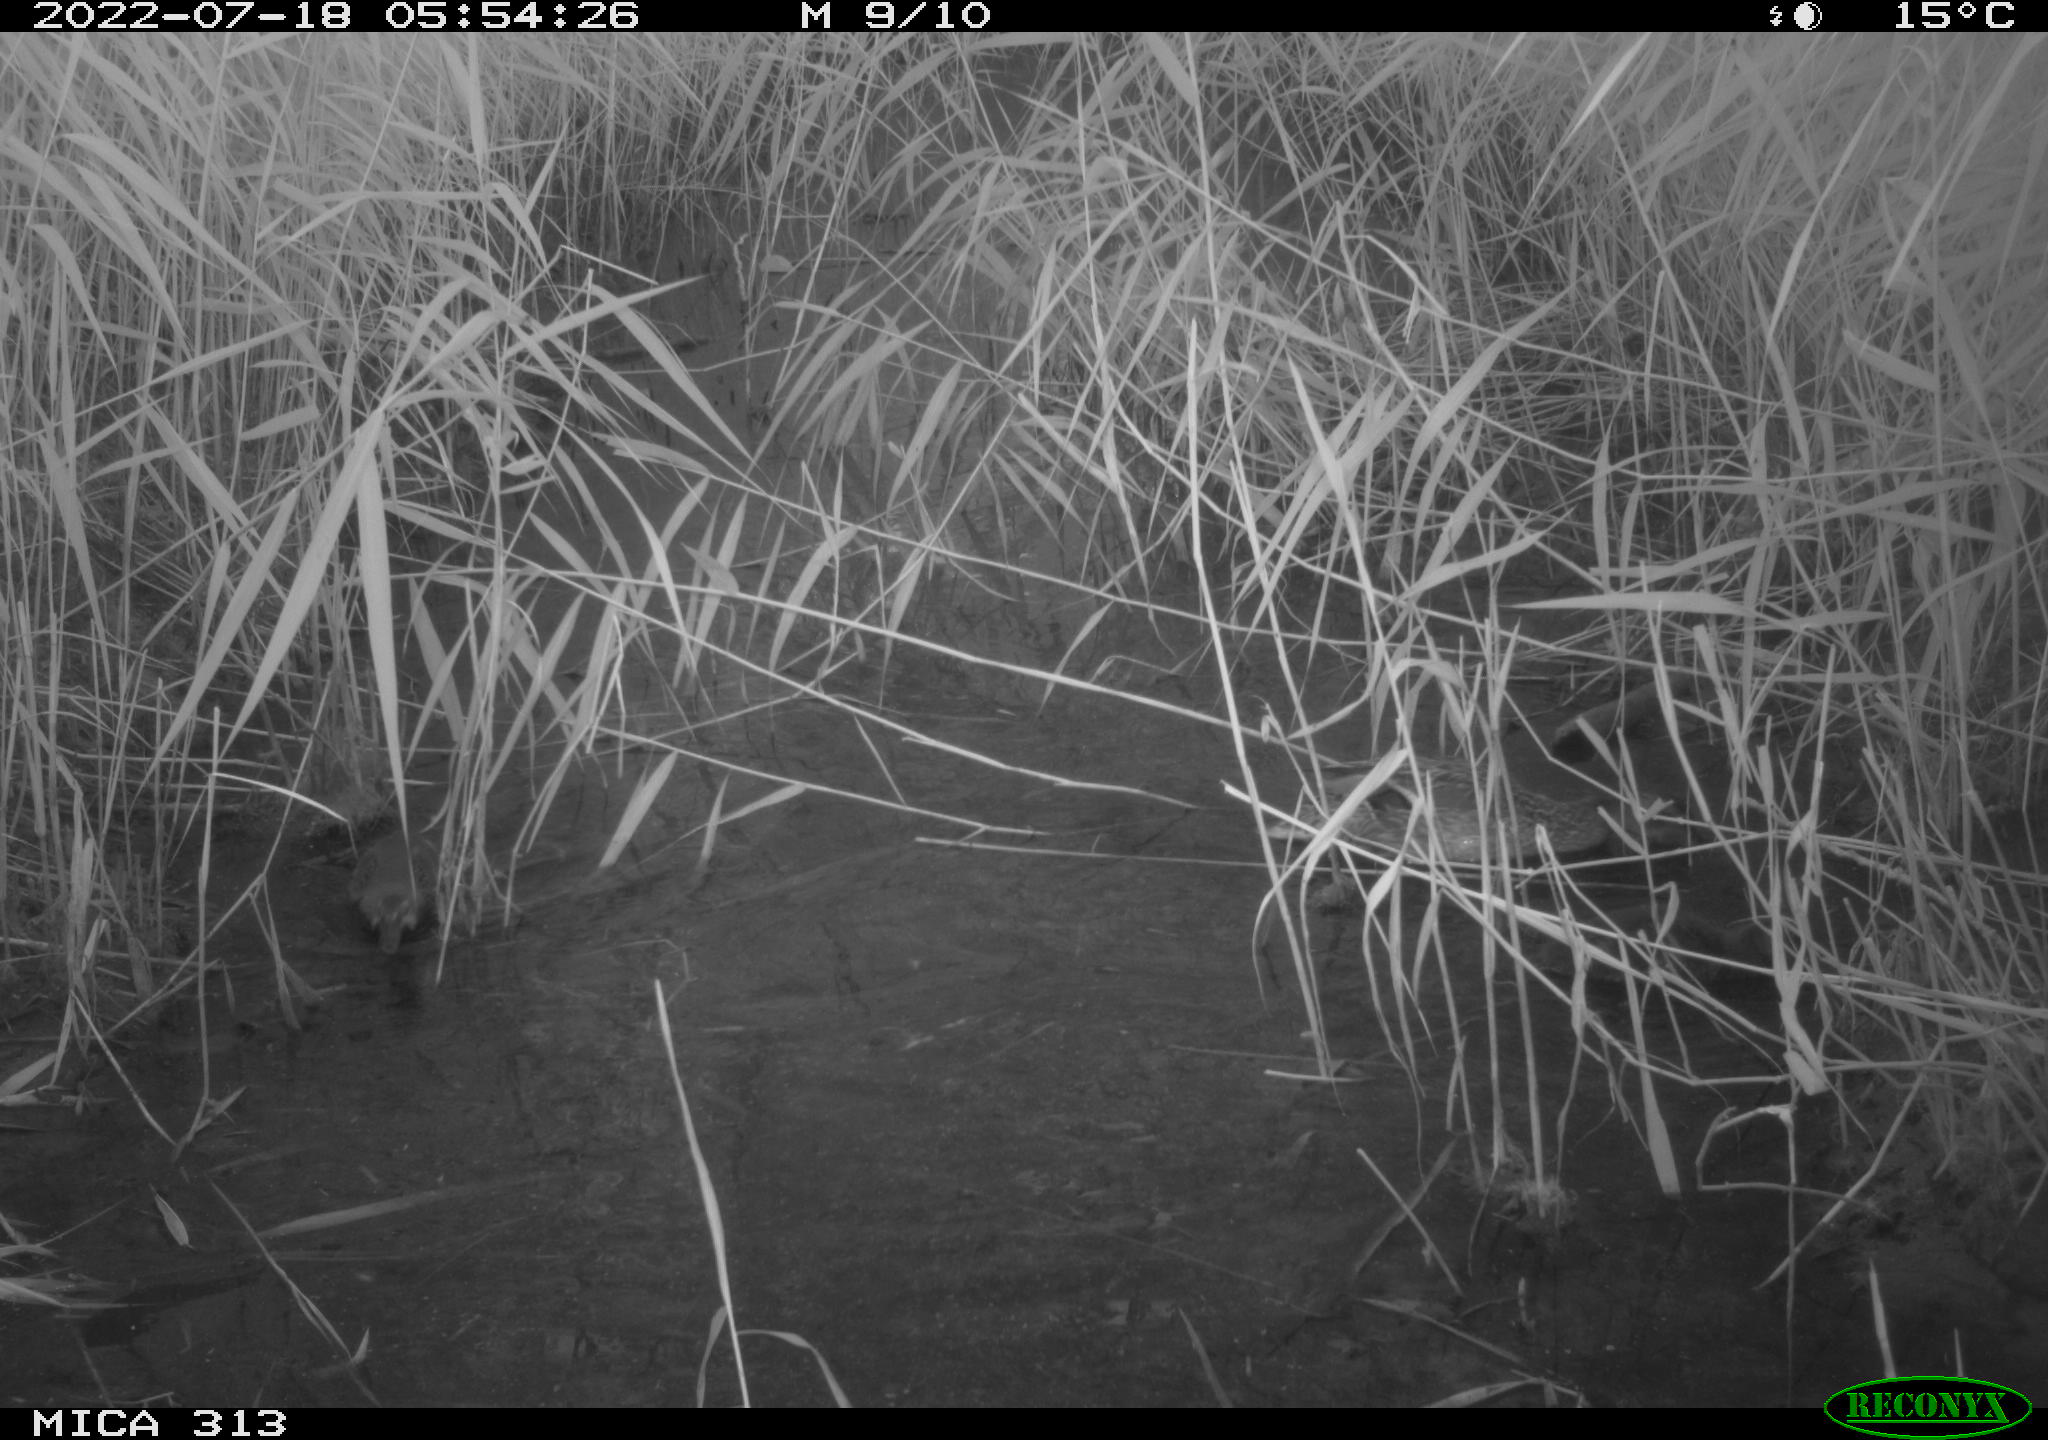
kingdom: Animalia
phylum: Chordata
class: Aves
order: Anseriformes
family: Anatidae
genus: Anas
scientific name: Anas platyrhynchos
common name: Mallard
